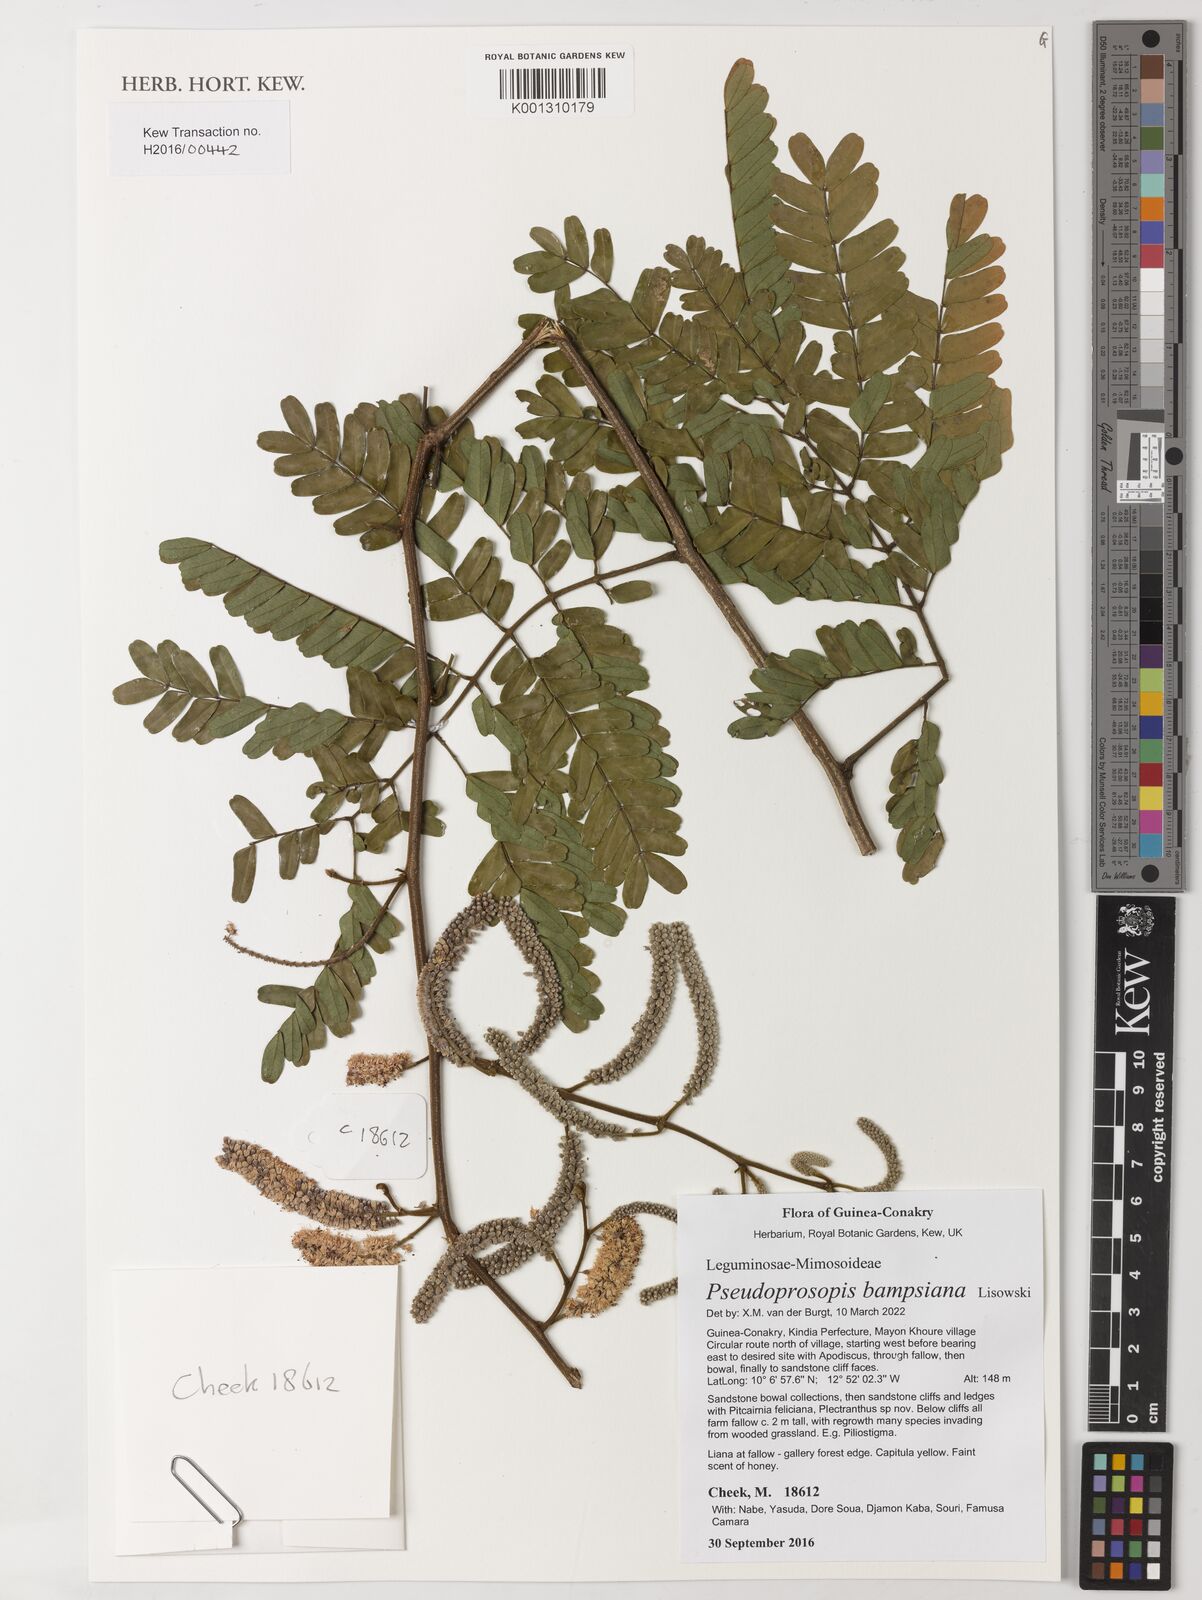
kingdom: Plantae
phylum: Tracheophyta
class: Magnoliopsida
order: Fabales
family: Fabaceae
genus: Pseudoprosopis
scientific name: Pseudoprosopis bampsiana
